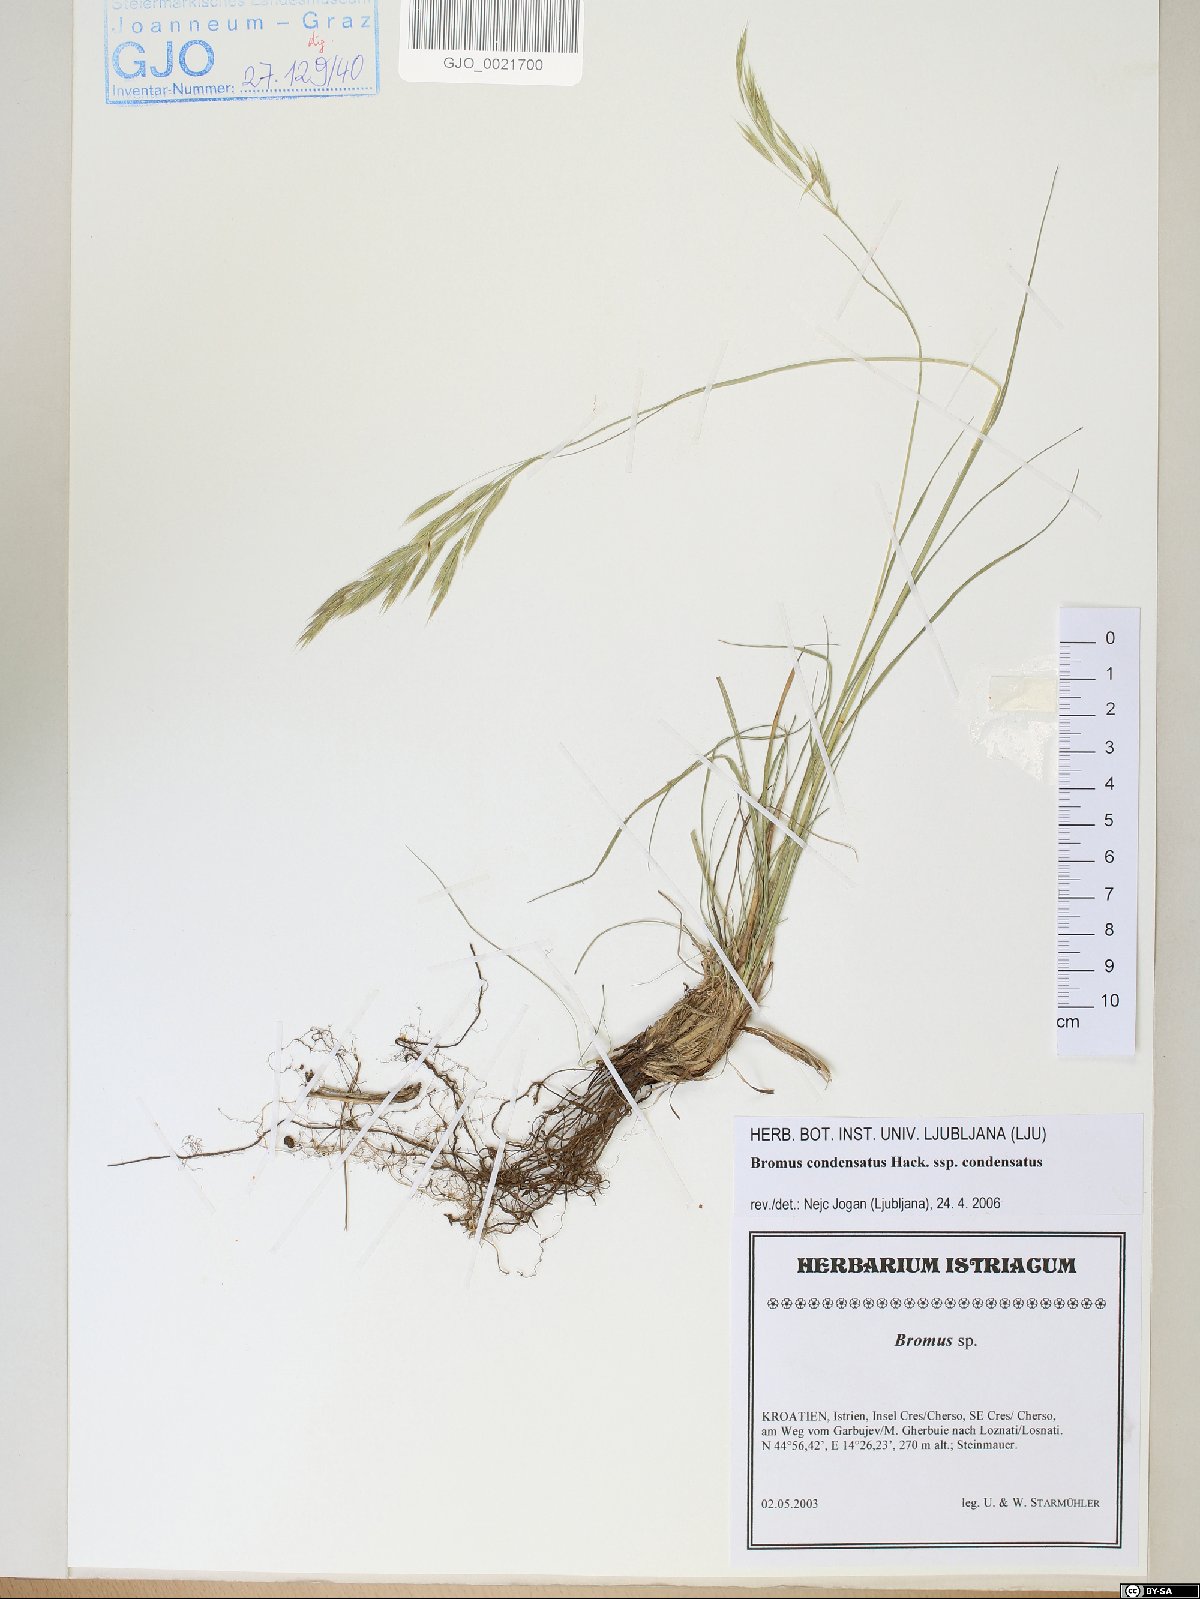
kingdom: Plantae
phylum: Tracheophyta
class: Liliopsida
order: Poales
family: Poaceae
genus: Bromus
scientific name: Bromus condensatus
